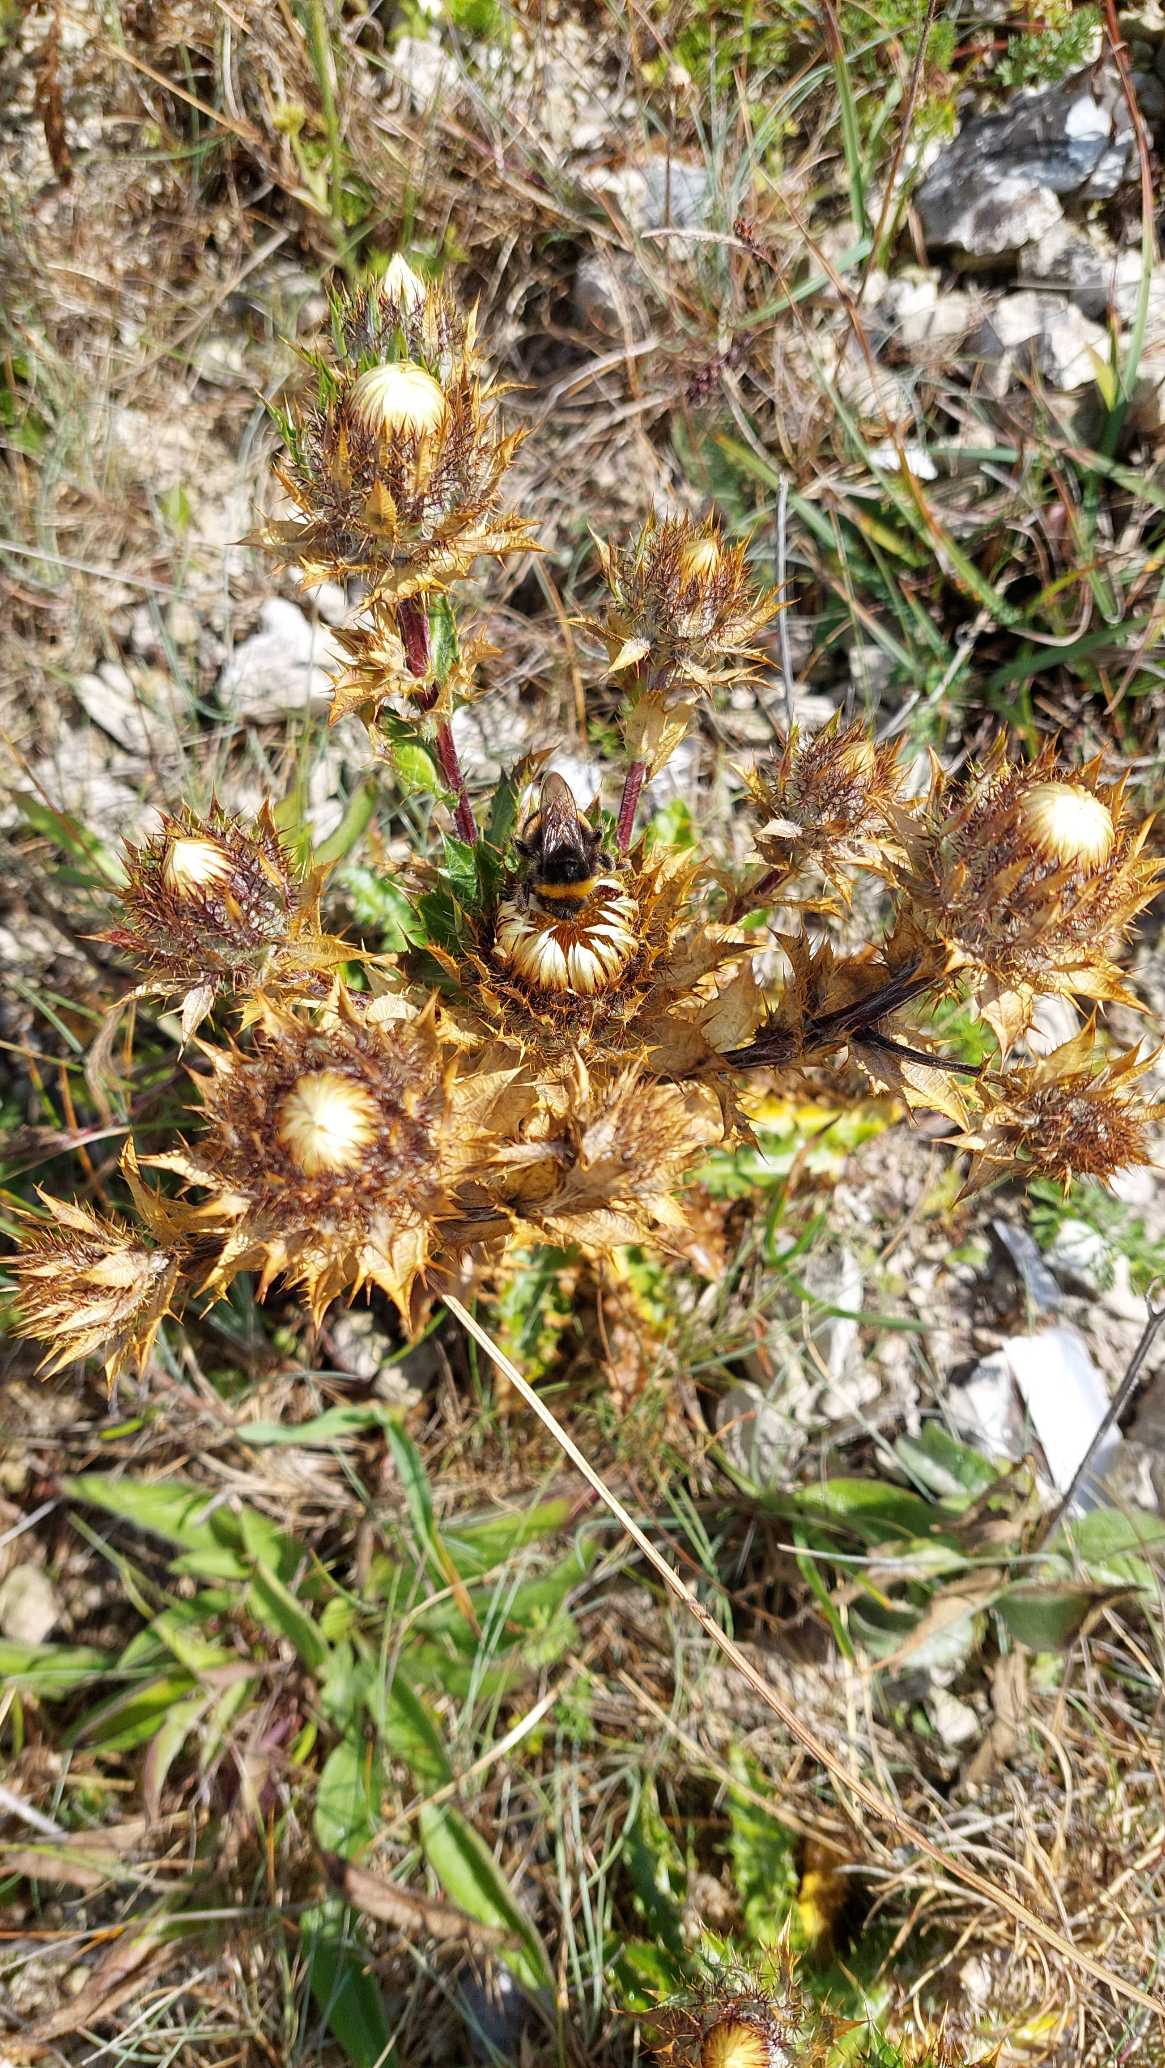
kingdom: Plantae
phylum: Tracheophyta
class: Magnoliopsida
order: Asterales
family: Asteraceae
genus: Carlina
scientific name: Carlina vulgaris
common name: Bakketidsel
